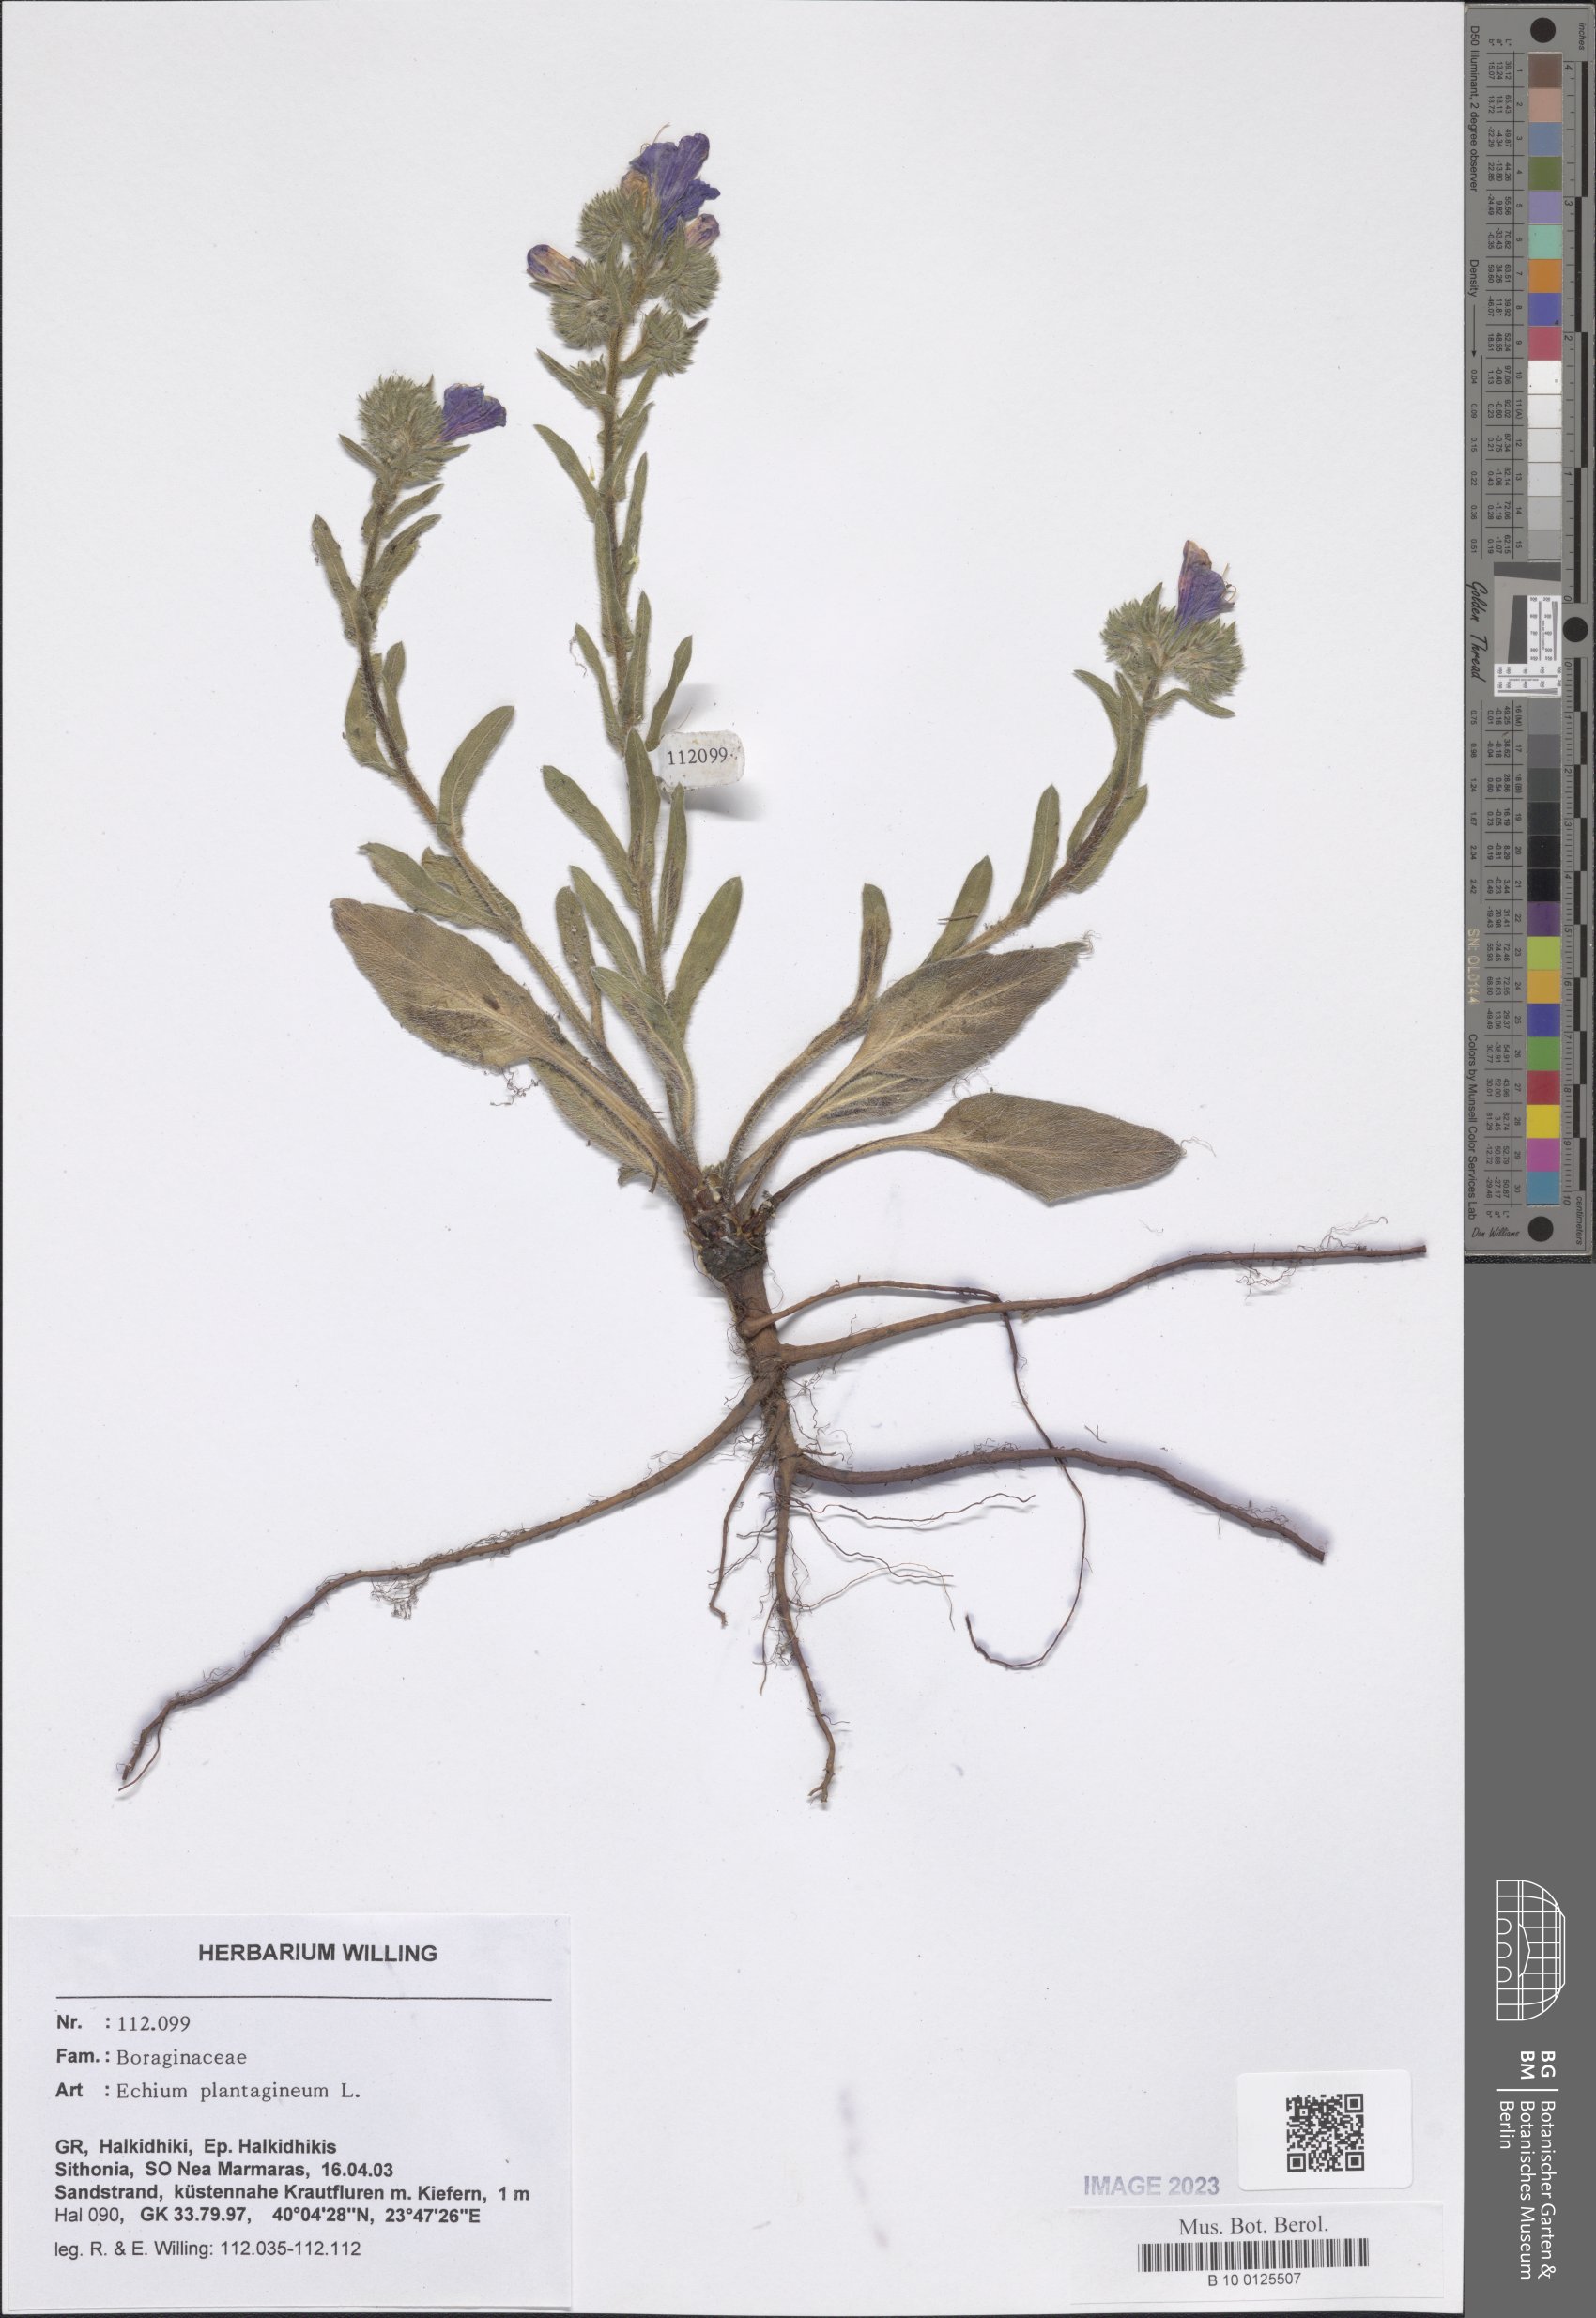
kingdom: Plantae
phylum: Tracheophyta
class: Magnoliopsida
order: Boraginales
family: Boraginaceae
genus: Echium
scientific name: Echium plantagineum
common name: Purple viper's-bugloss
